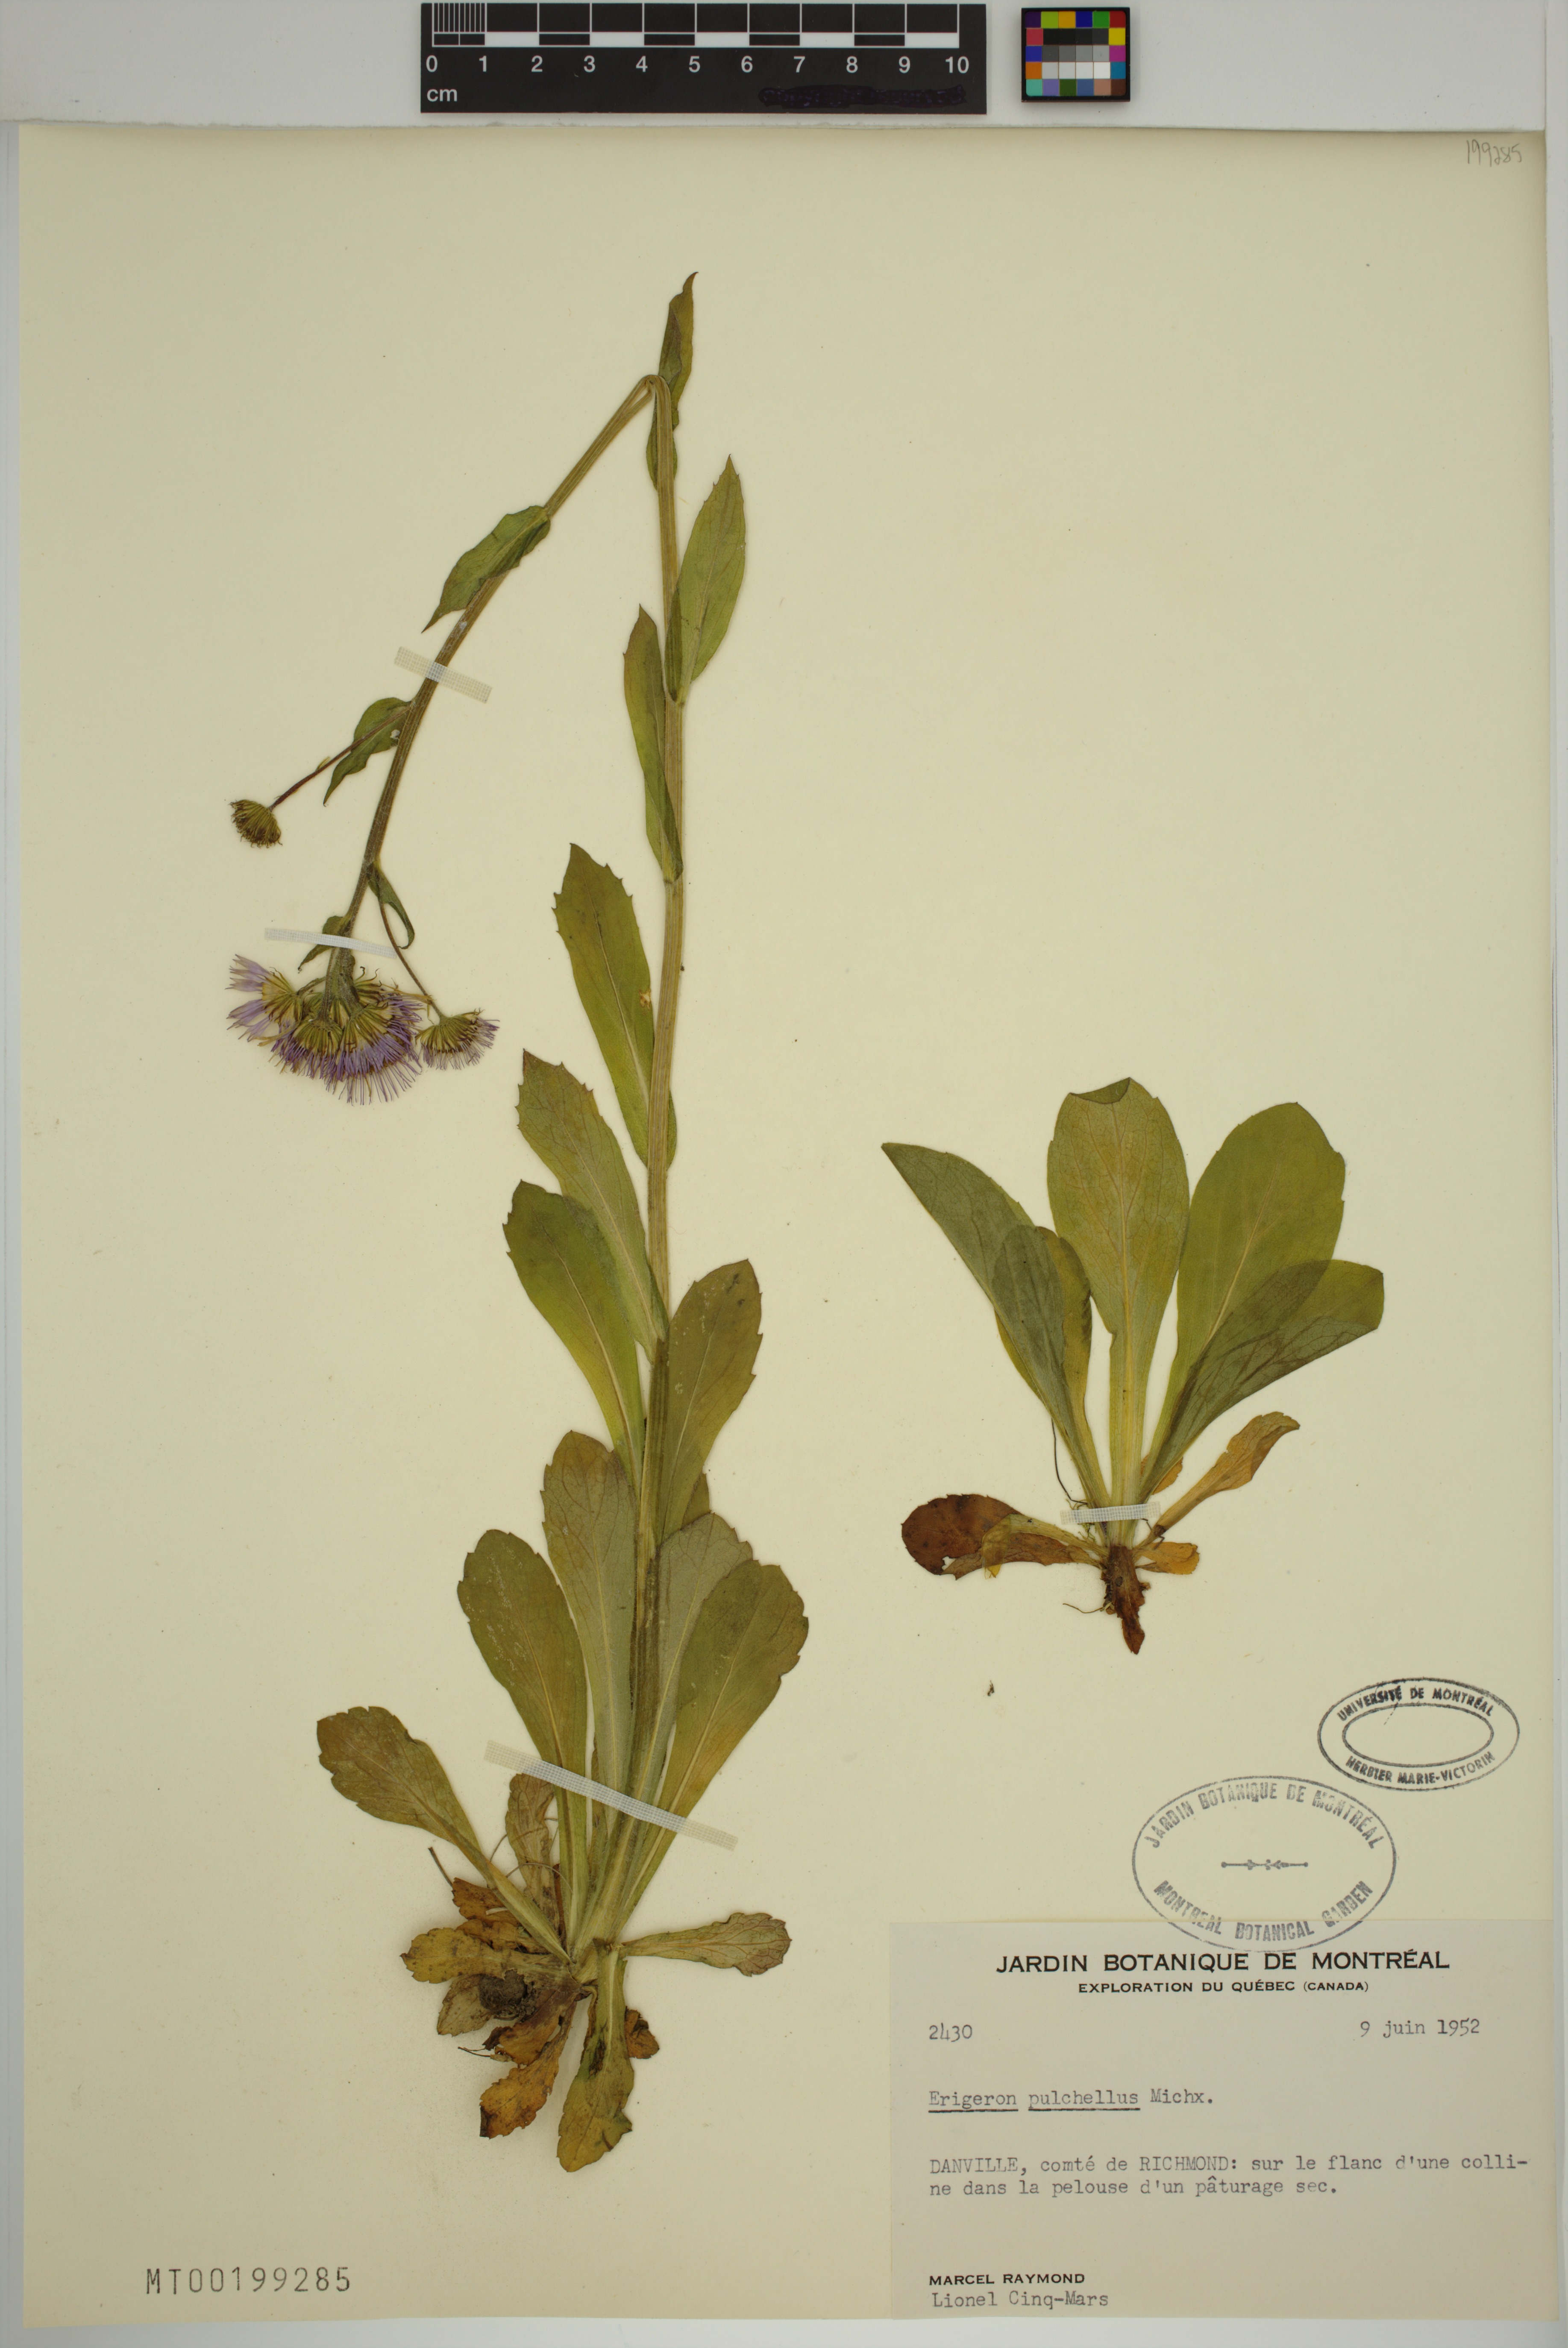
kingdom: Plantae
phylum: Tracheophyta
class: Magnoliopsida
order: Asterales
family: Asteraceae
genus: Erigeron
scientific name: Erigeron pulchellus
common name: Hairy fleabane
